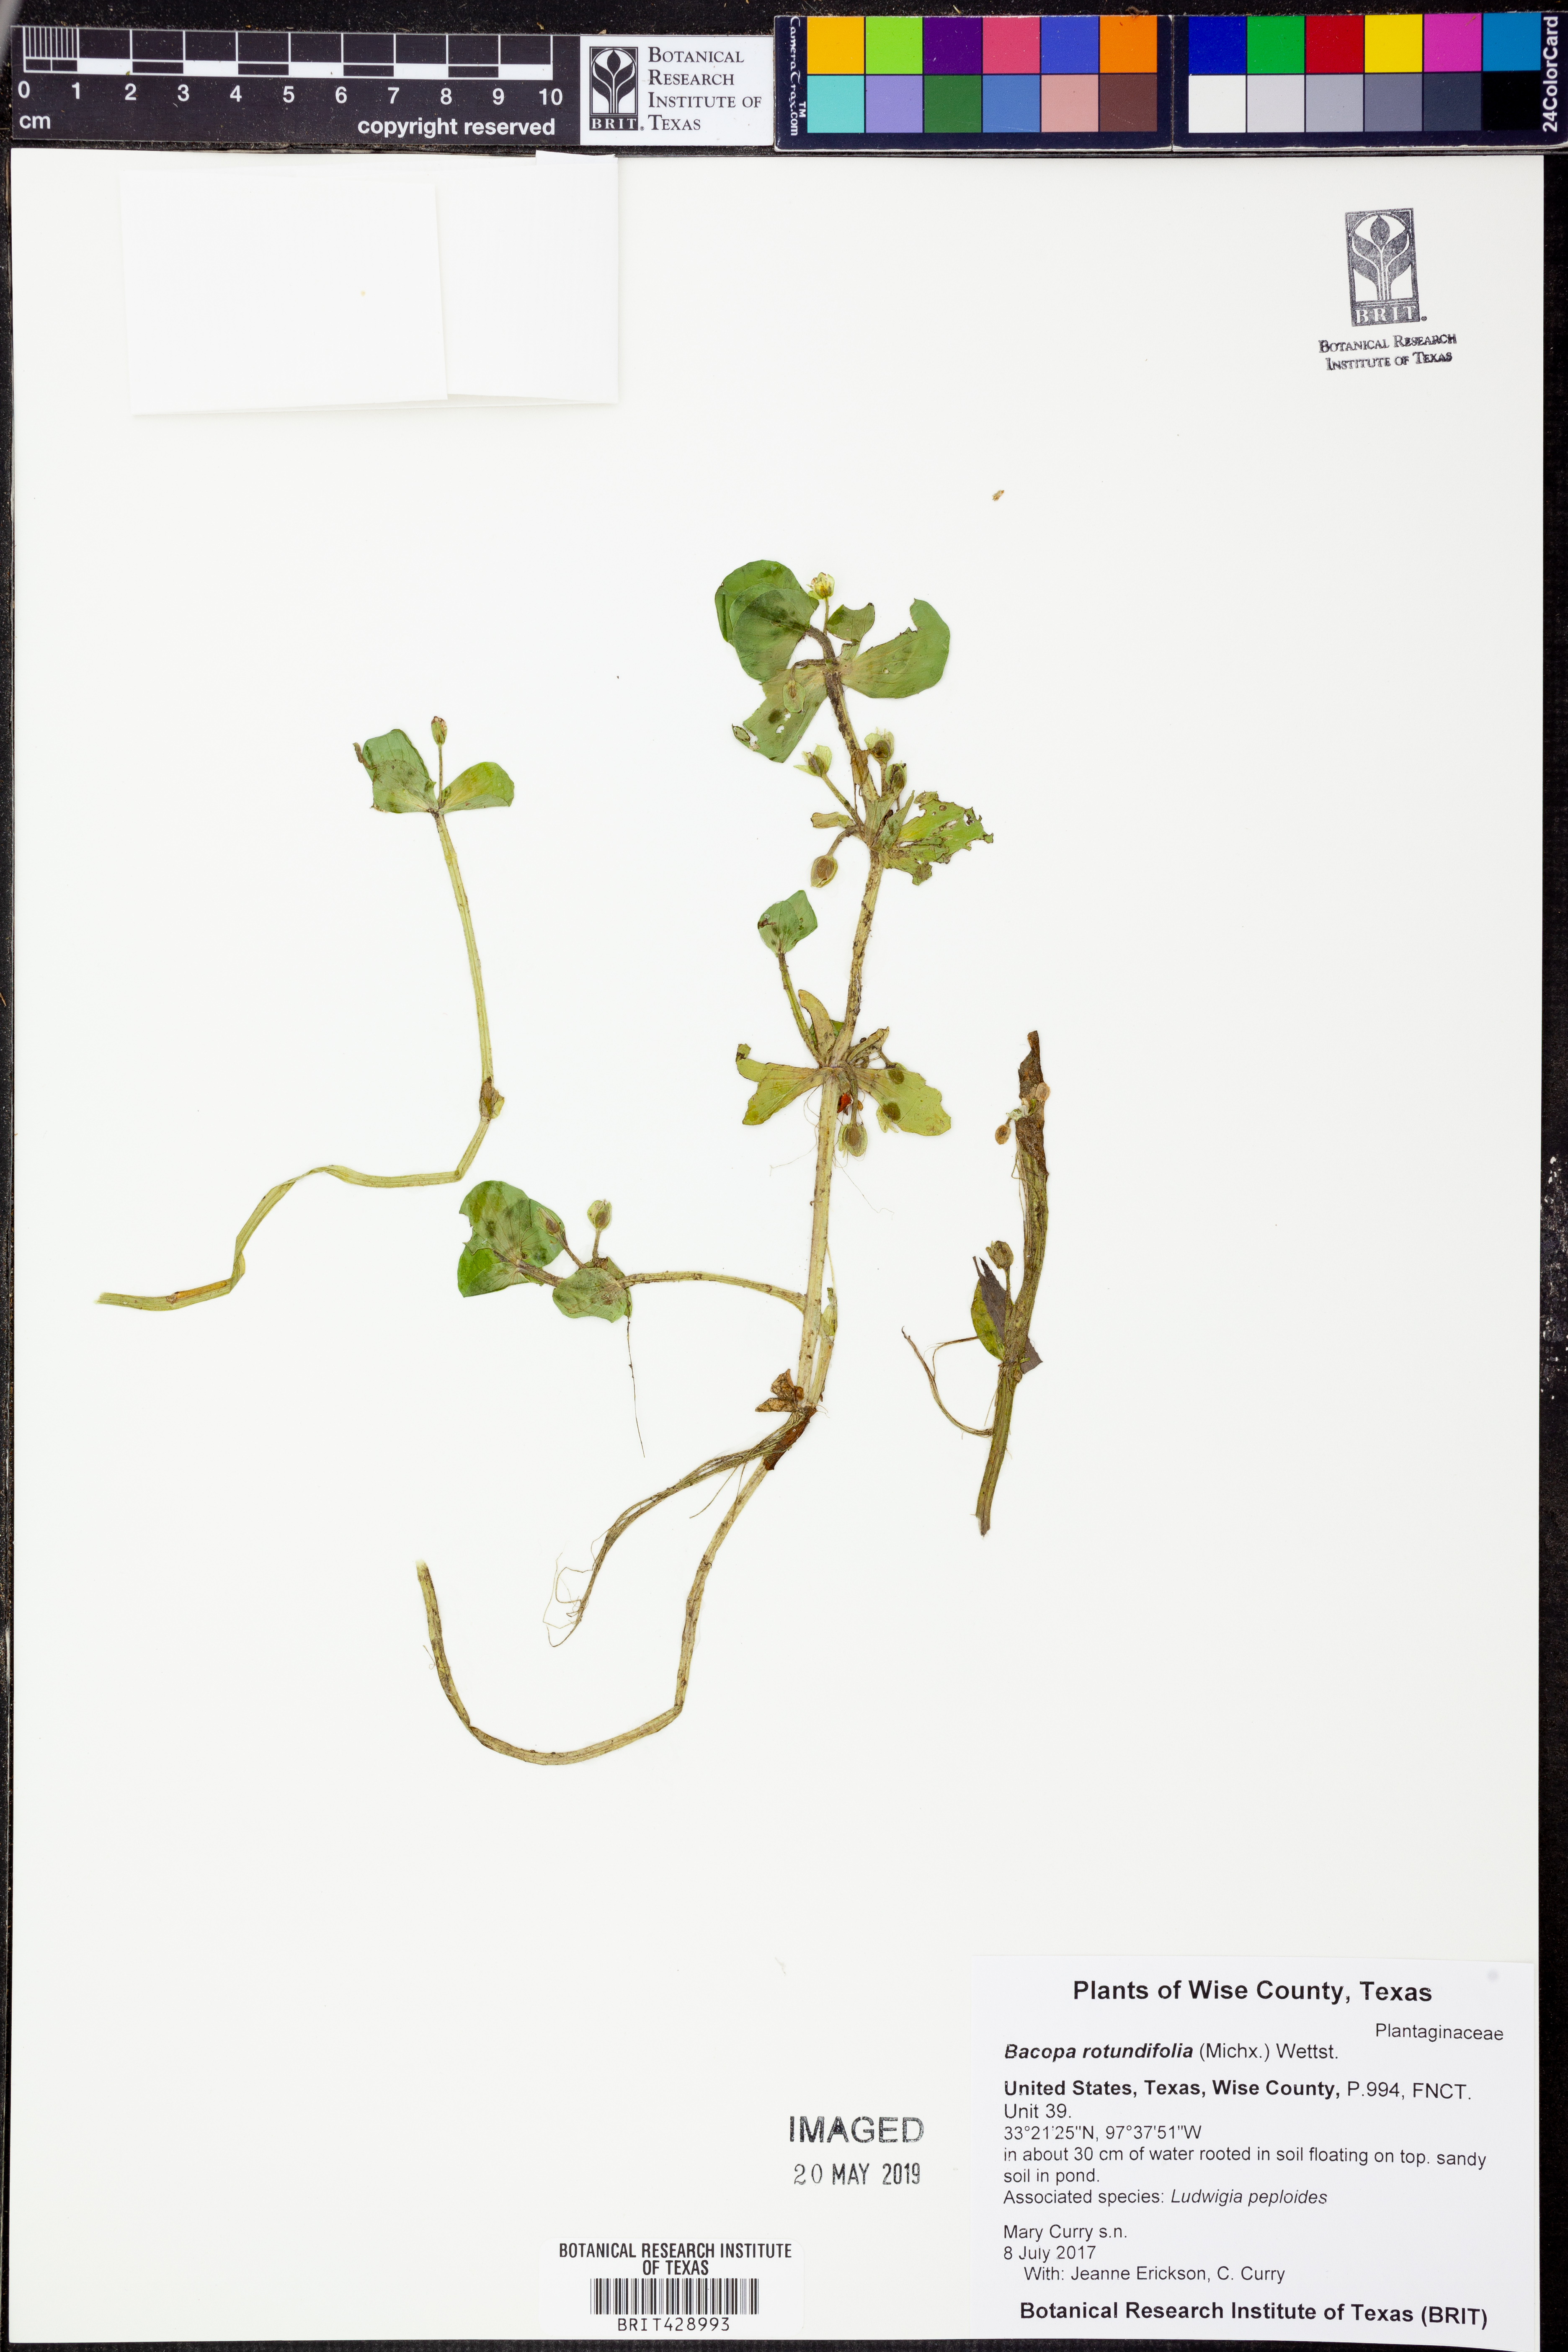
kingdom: Plantae
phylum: Tracheophyta
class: Magnoliopsida
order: Lamiales
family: Plantaginaceae
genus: Bacopa
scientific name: Bacopa rotundifolia
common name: Disc water hyssop
